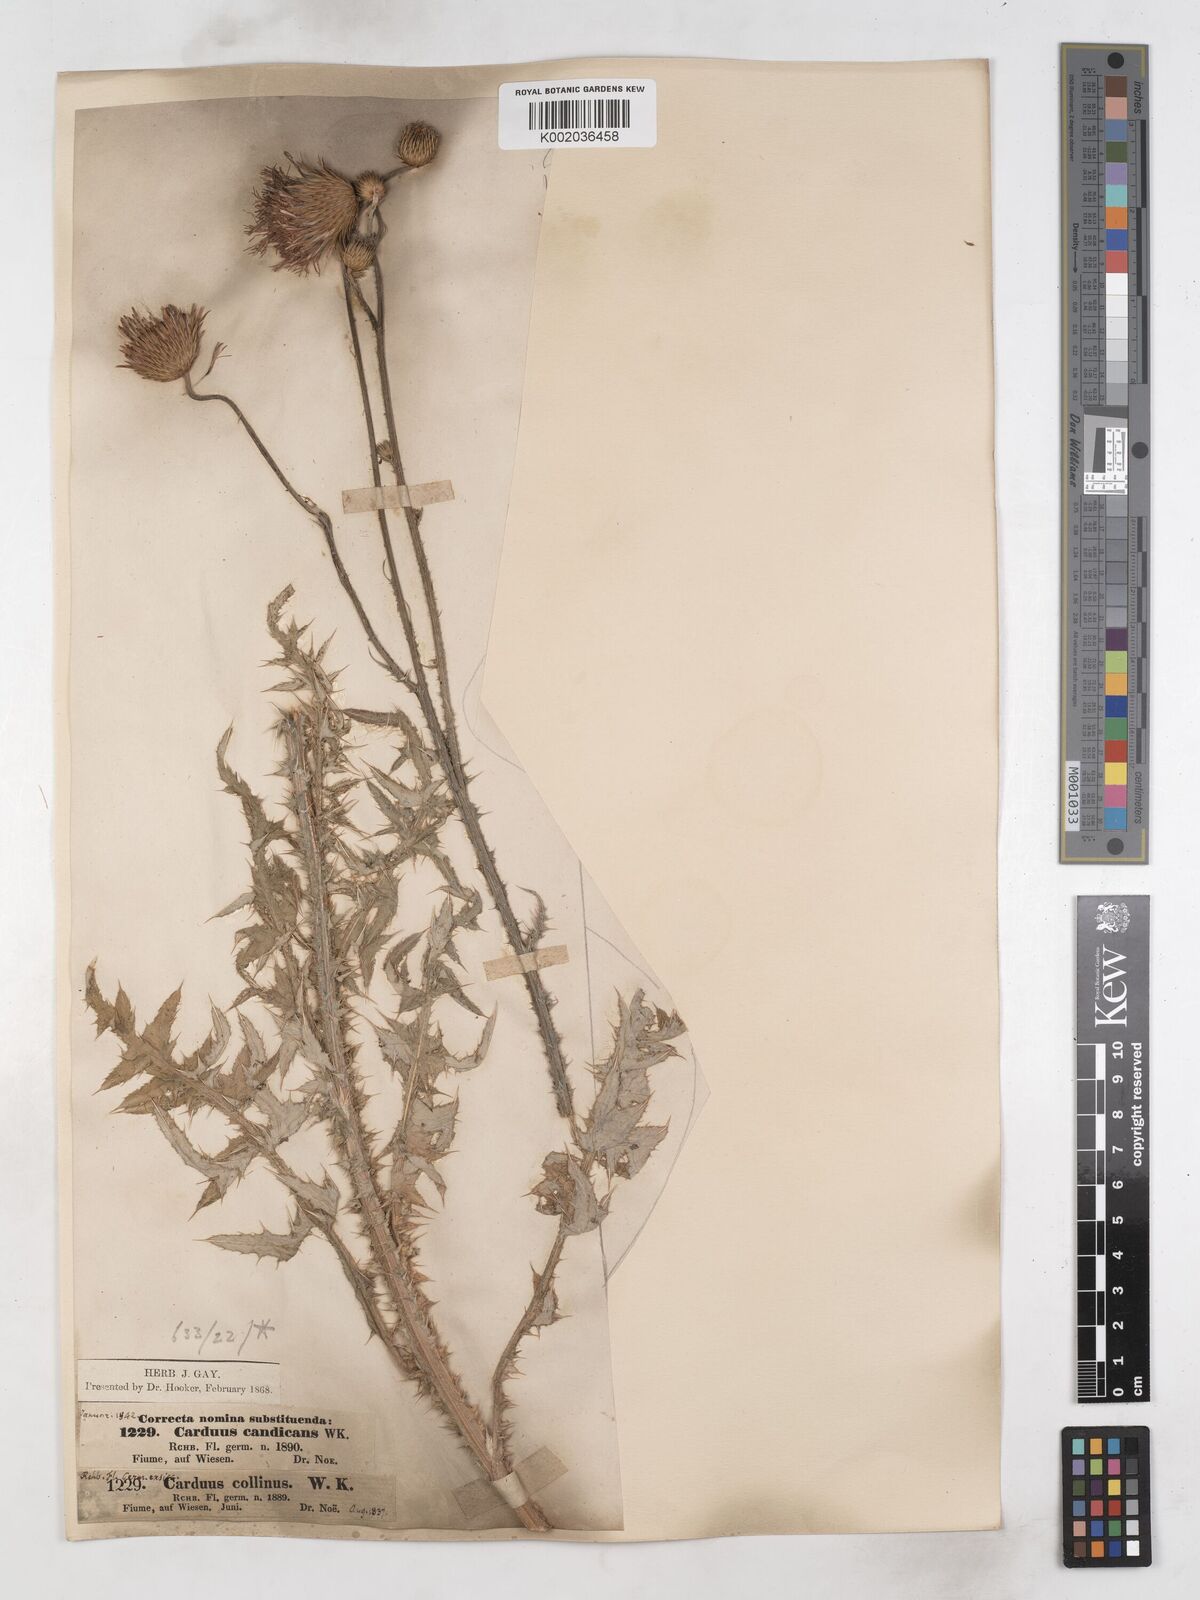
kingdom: Plantae
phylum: Tracheophyta
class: Magnoliopsida
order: Asterales
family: Asteraceae
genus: Carduus
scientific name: Carduus candicans
